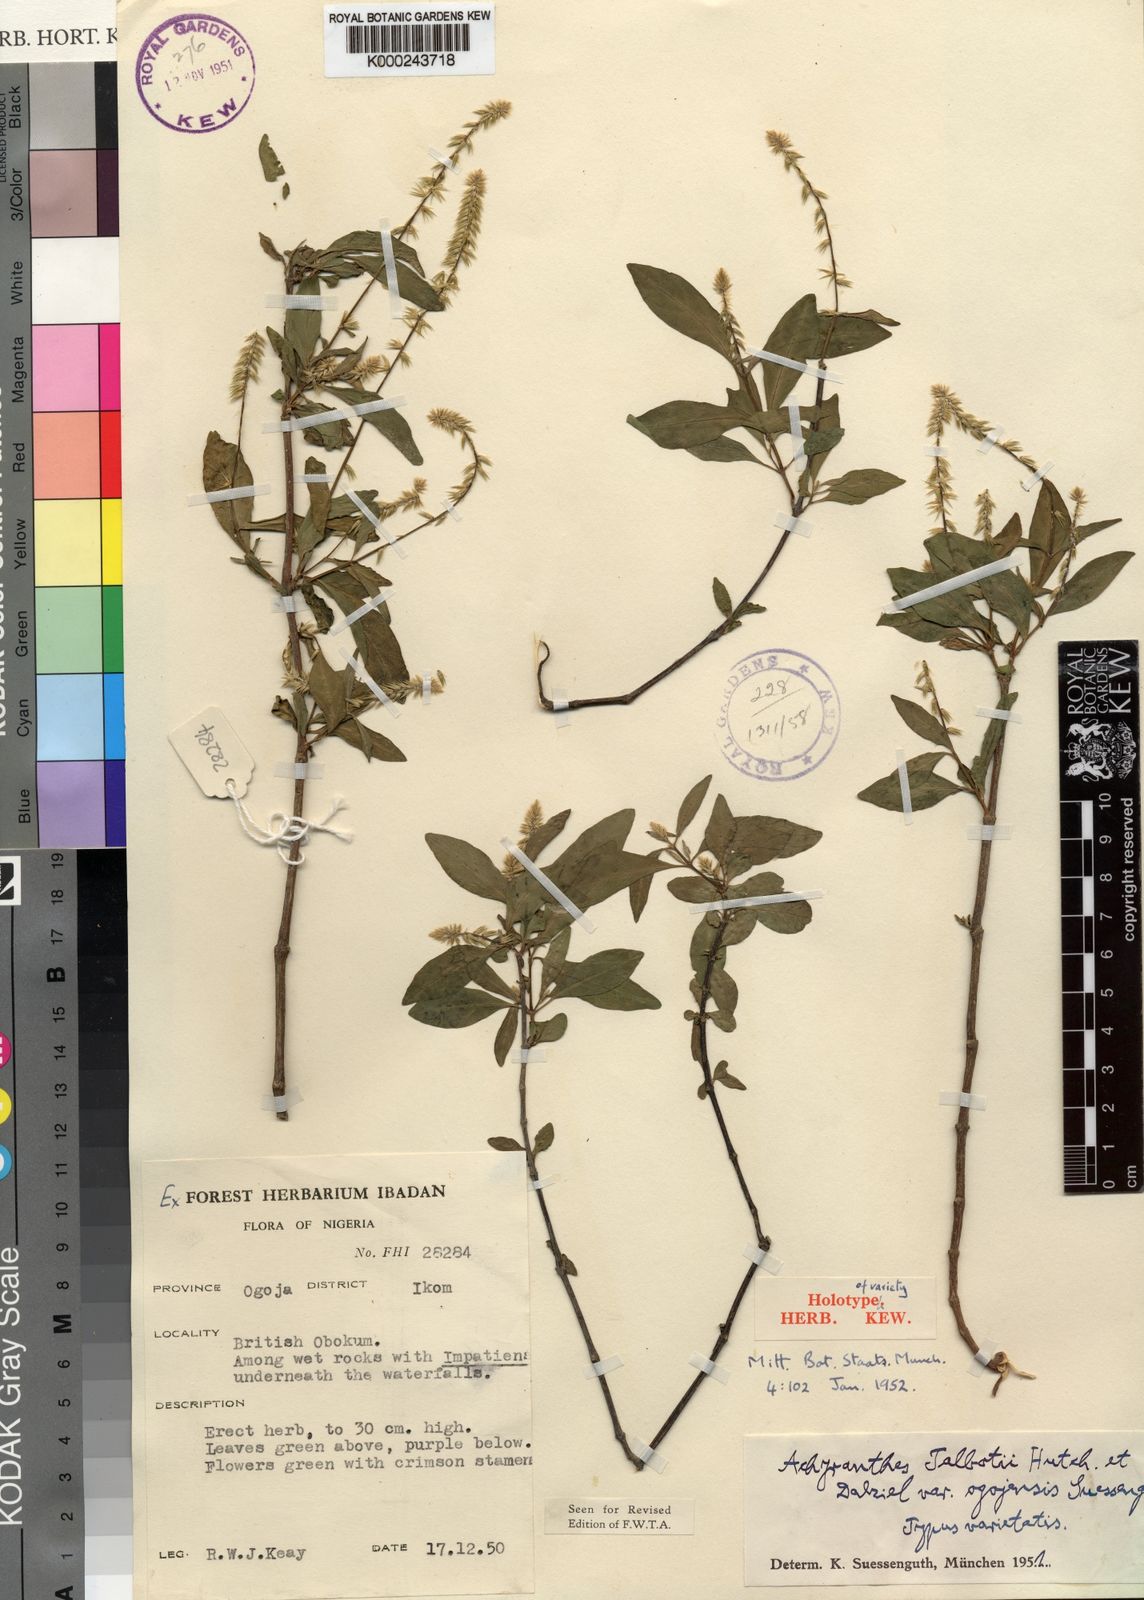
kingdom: Plantae
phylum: Tracheophyta
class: Magnoliopsida
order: Caryophyllales
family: Amaranthaceae
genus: Achyranthes
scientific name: Achyranthes talbotii
